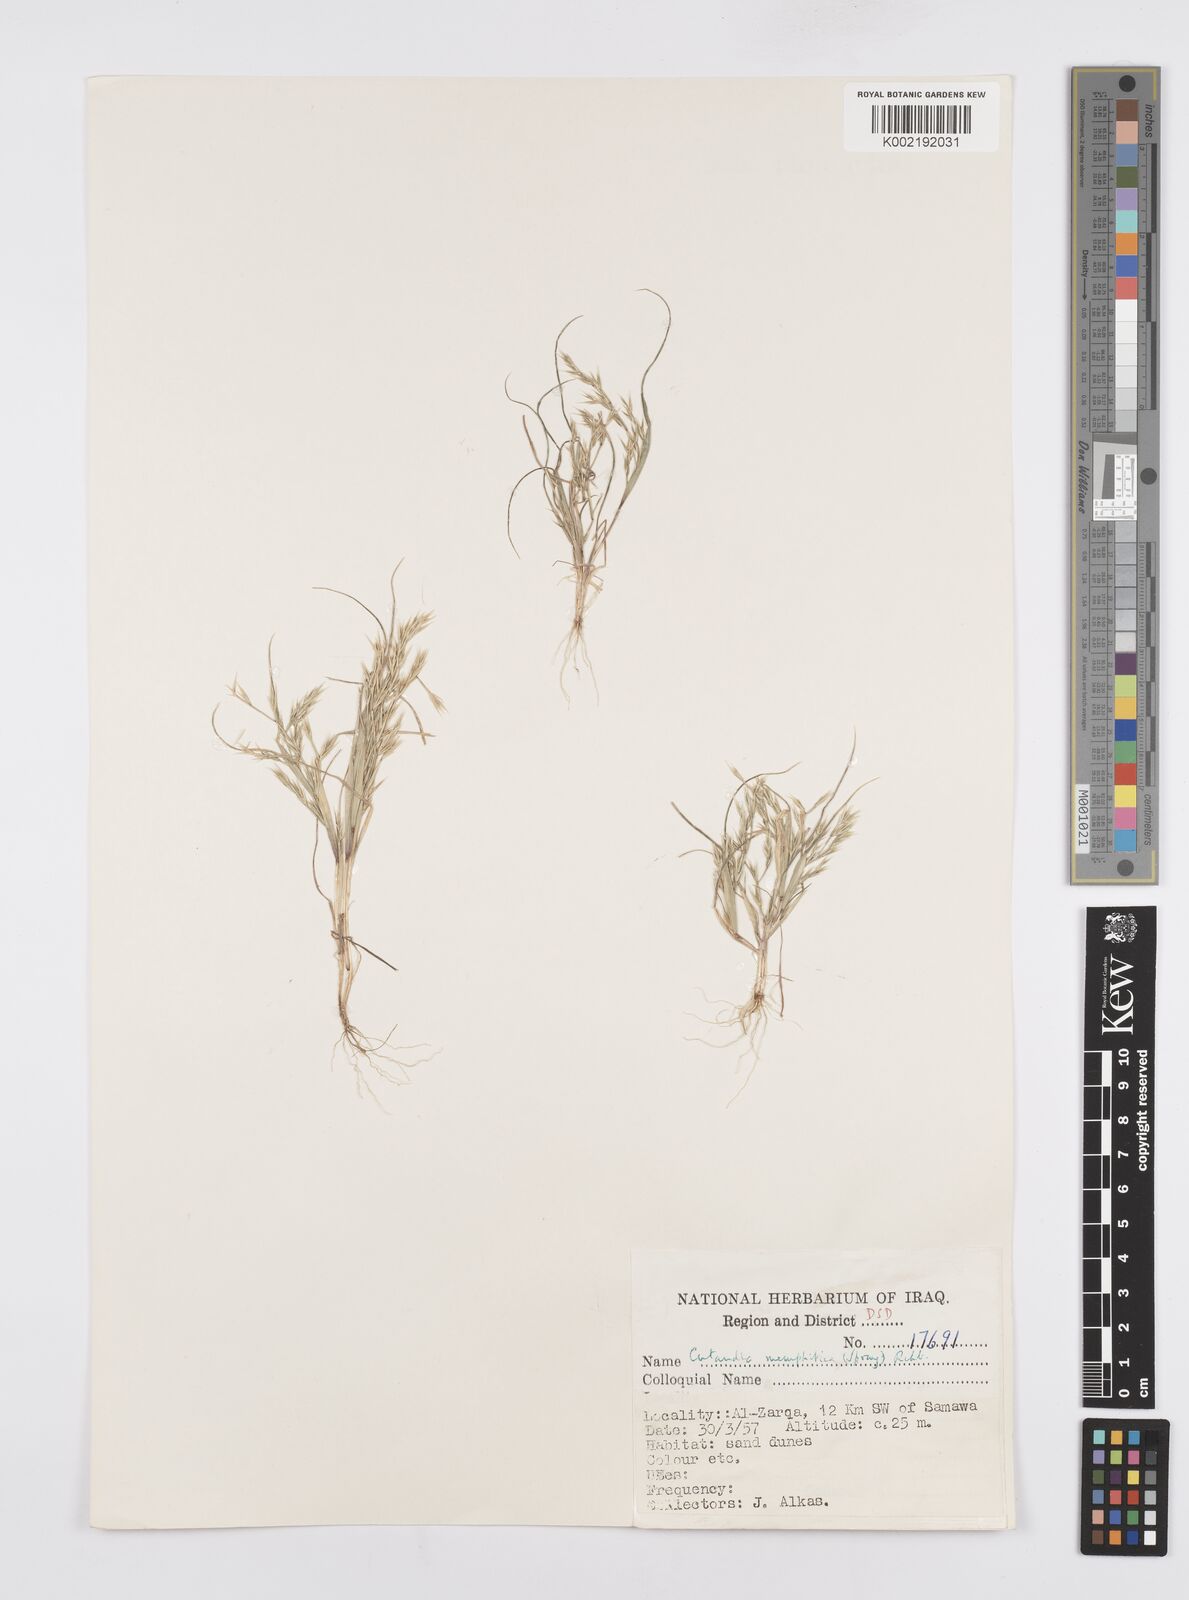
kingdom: Plantae
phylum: Tracheophyta
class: Liliopsida
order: Poales
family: Poaceae
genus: Cutandia
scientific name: Cutandia memphitica
